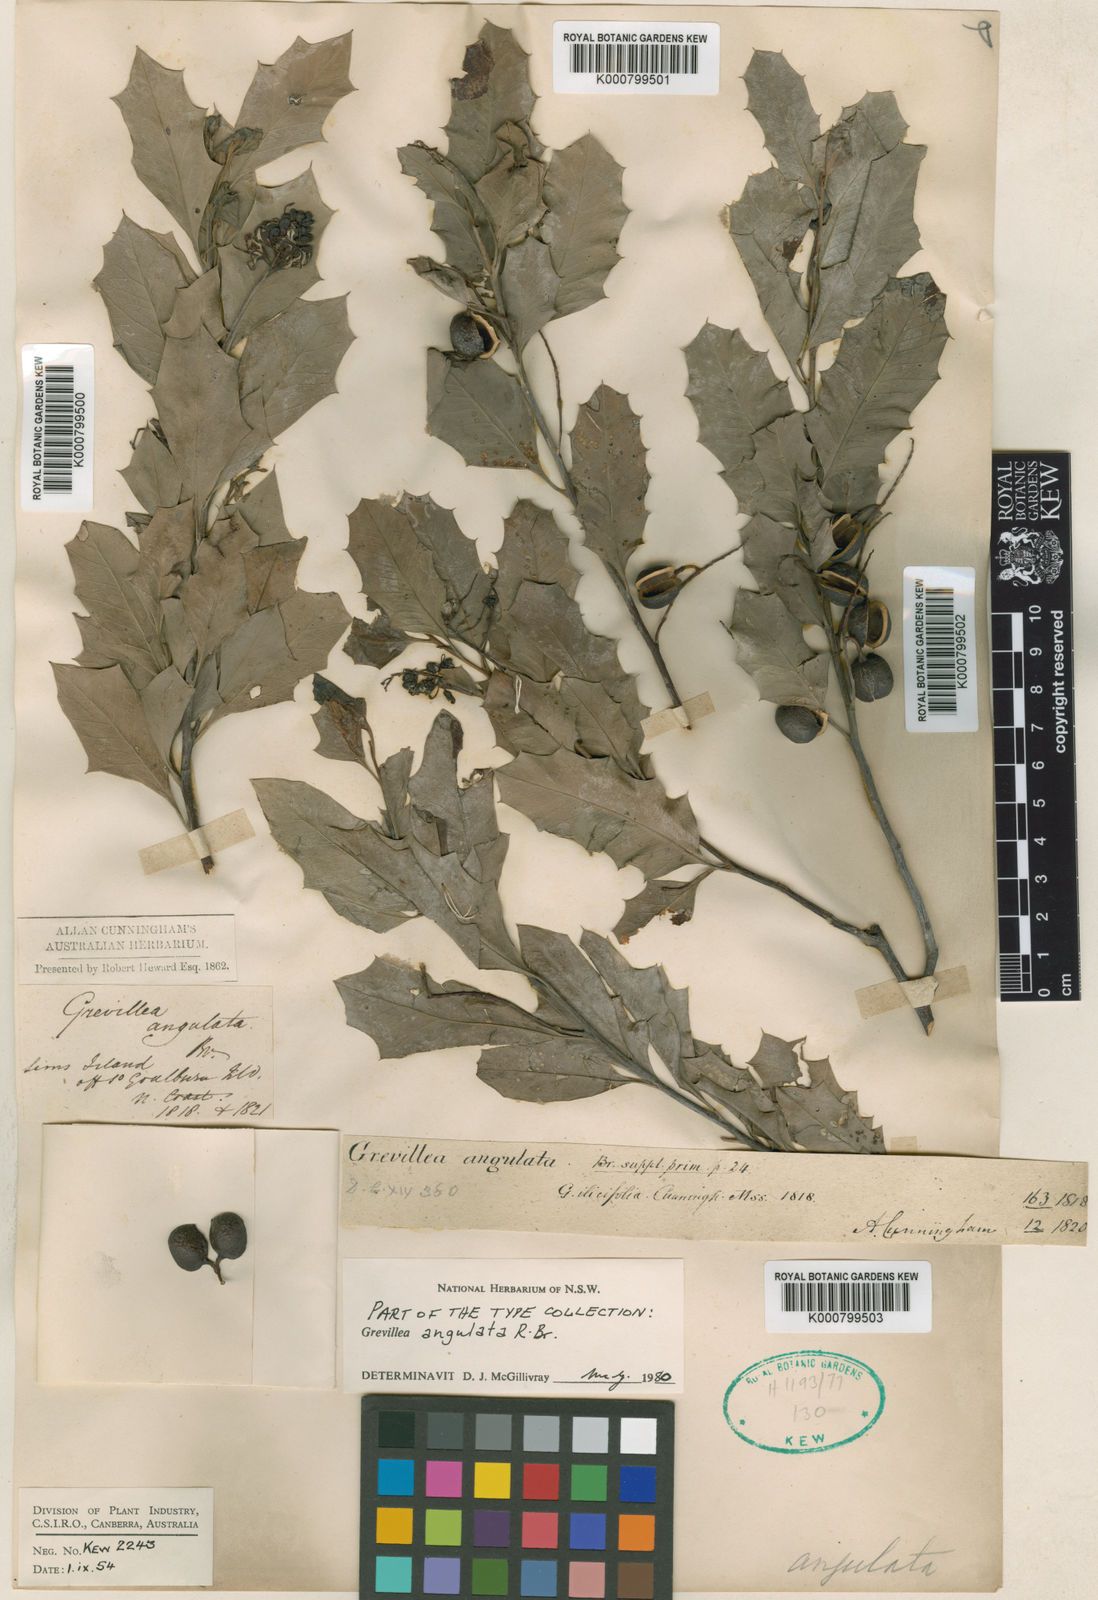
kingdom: Plantae
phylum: Tracheophyta
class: Magnoliopsida
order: Proteales
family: Proteaceae
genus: Grevillea
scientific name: Grevillea angulata
